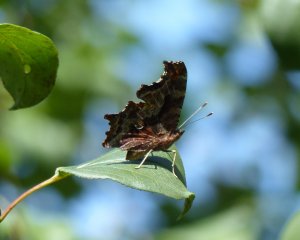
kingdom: Animalia
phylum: Arthropoda
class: Insecta
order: Lepidoptera
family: Nymphalidae
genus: Polygonia
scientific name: Polygonia comma
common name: Eastern Comma
